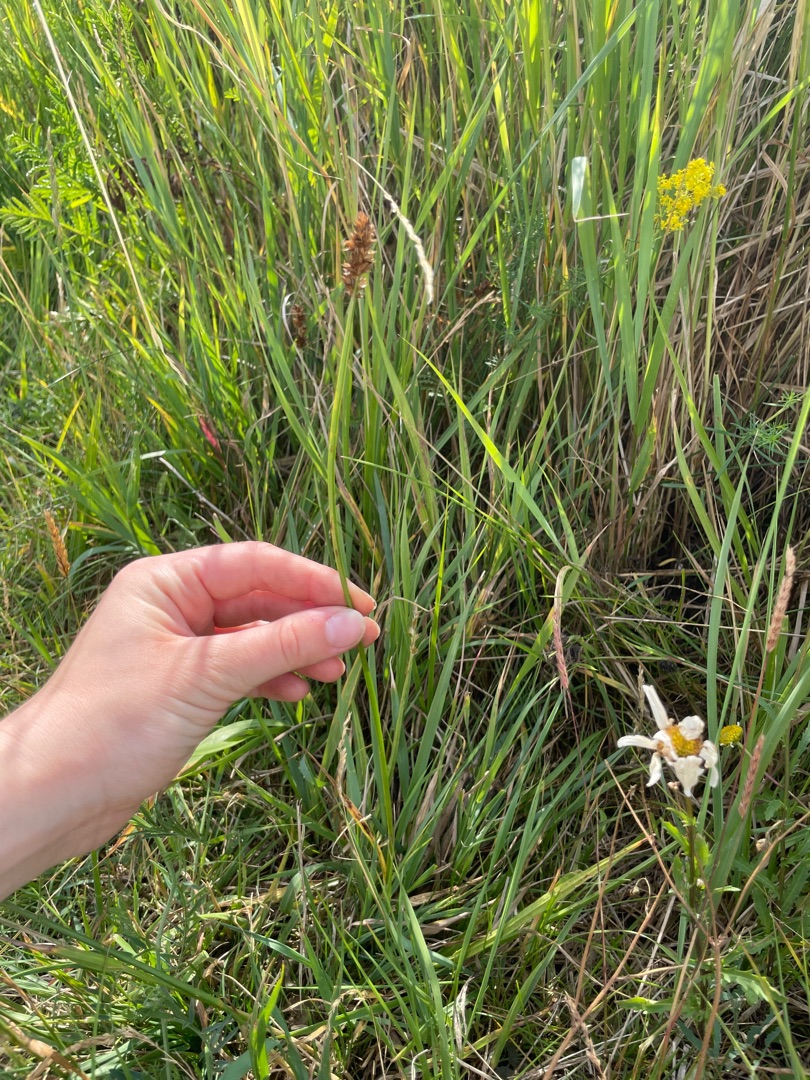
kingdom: Plantae
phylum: Tracheophyta
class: Liliopsida
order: Poales
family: Cyperaceae
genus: Carex
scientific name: Carex otrubae
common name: Sylt-star
